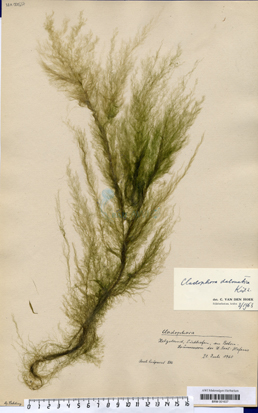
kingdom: Plantae
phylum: Chlorophyta
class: Ulvophyceae
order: Cladophorales
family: Cladophoraceae
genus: Cladophora
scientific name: Cladophora dalmatica
